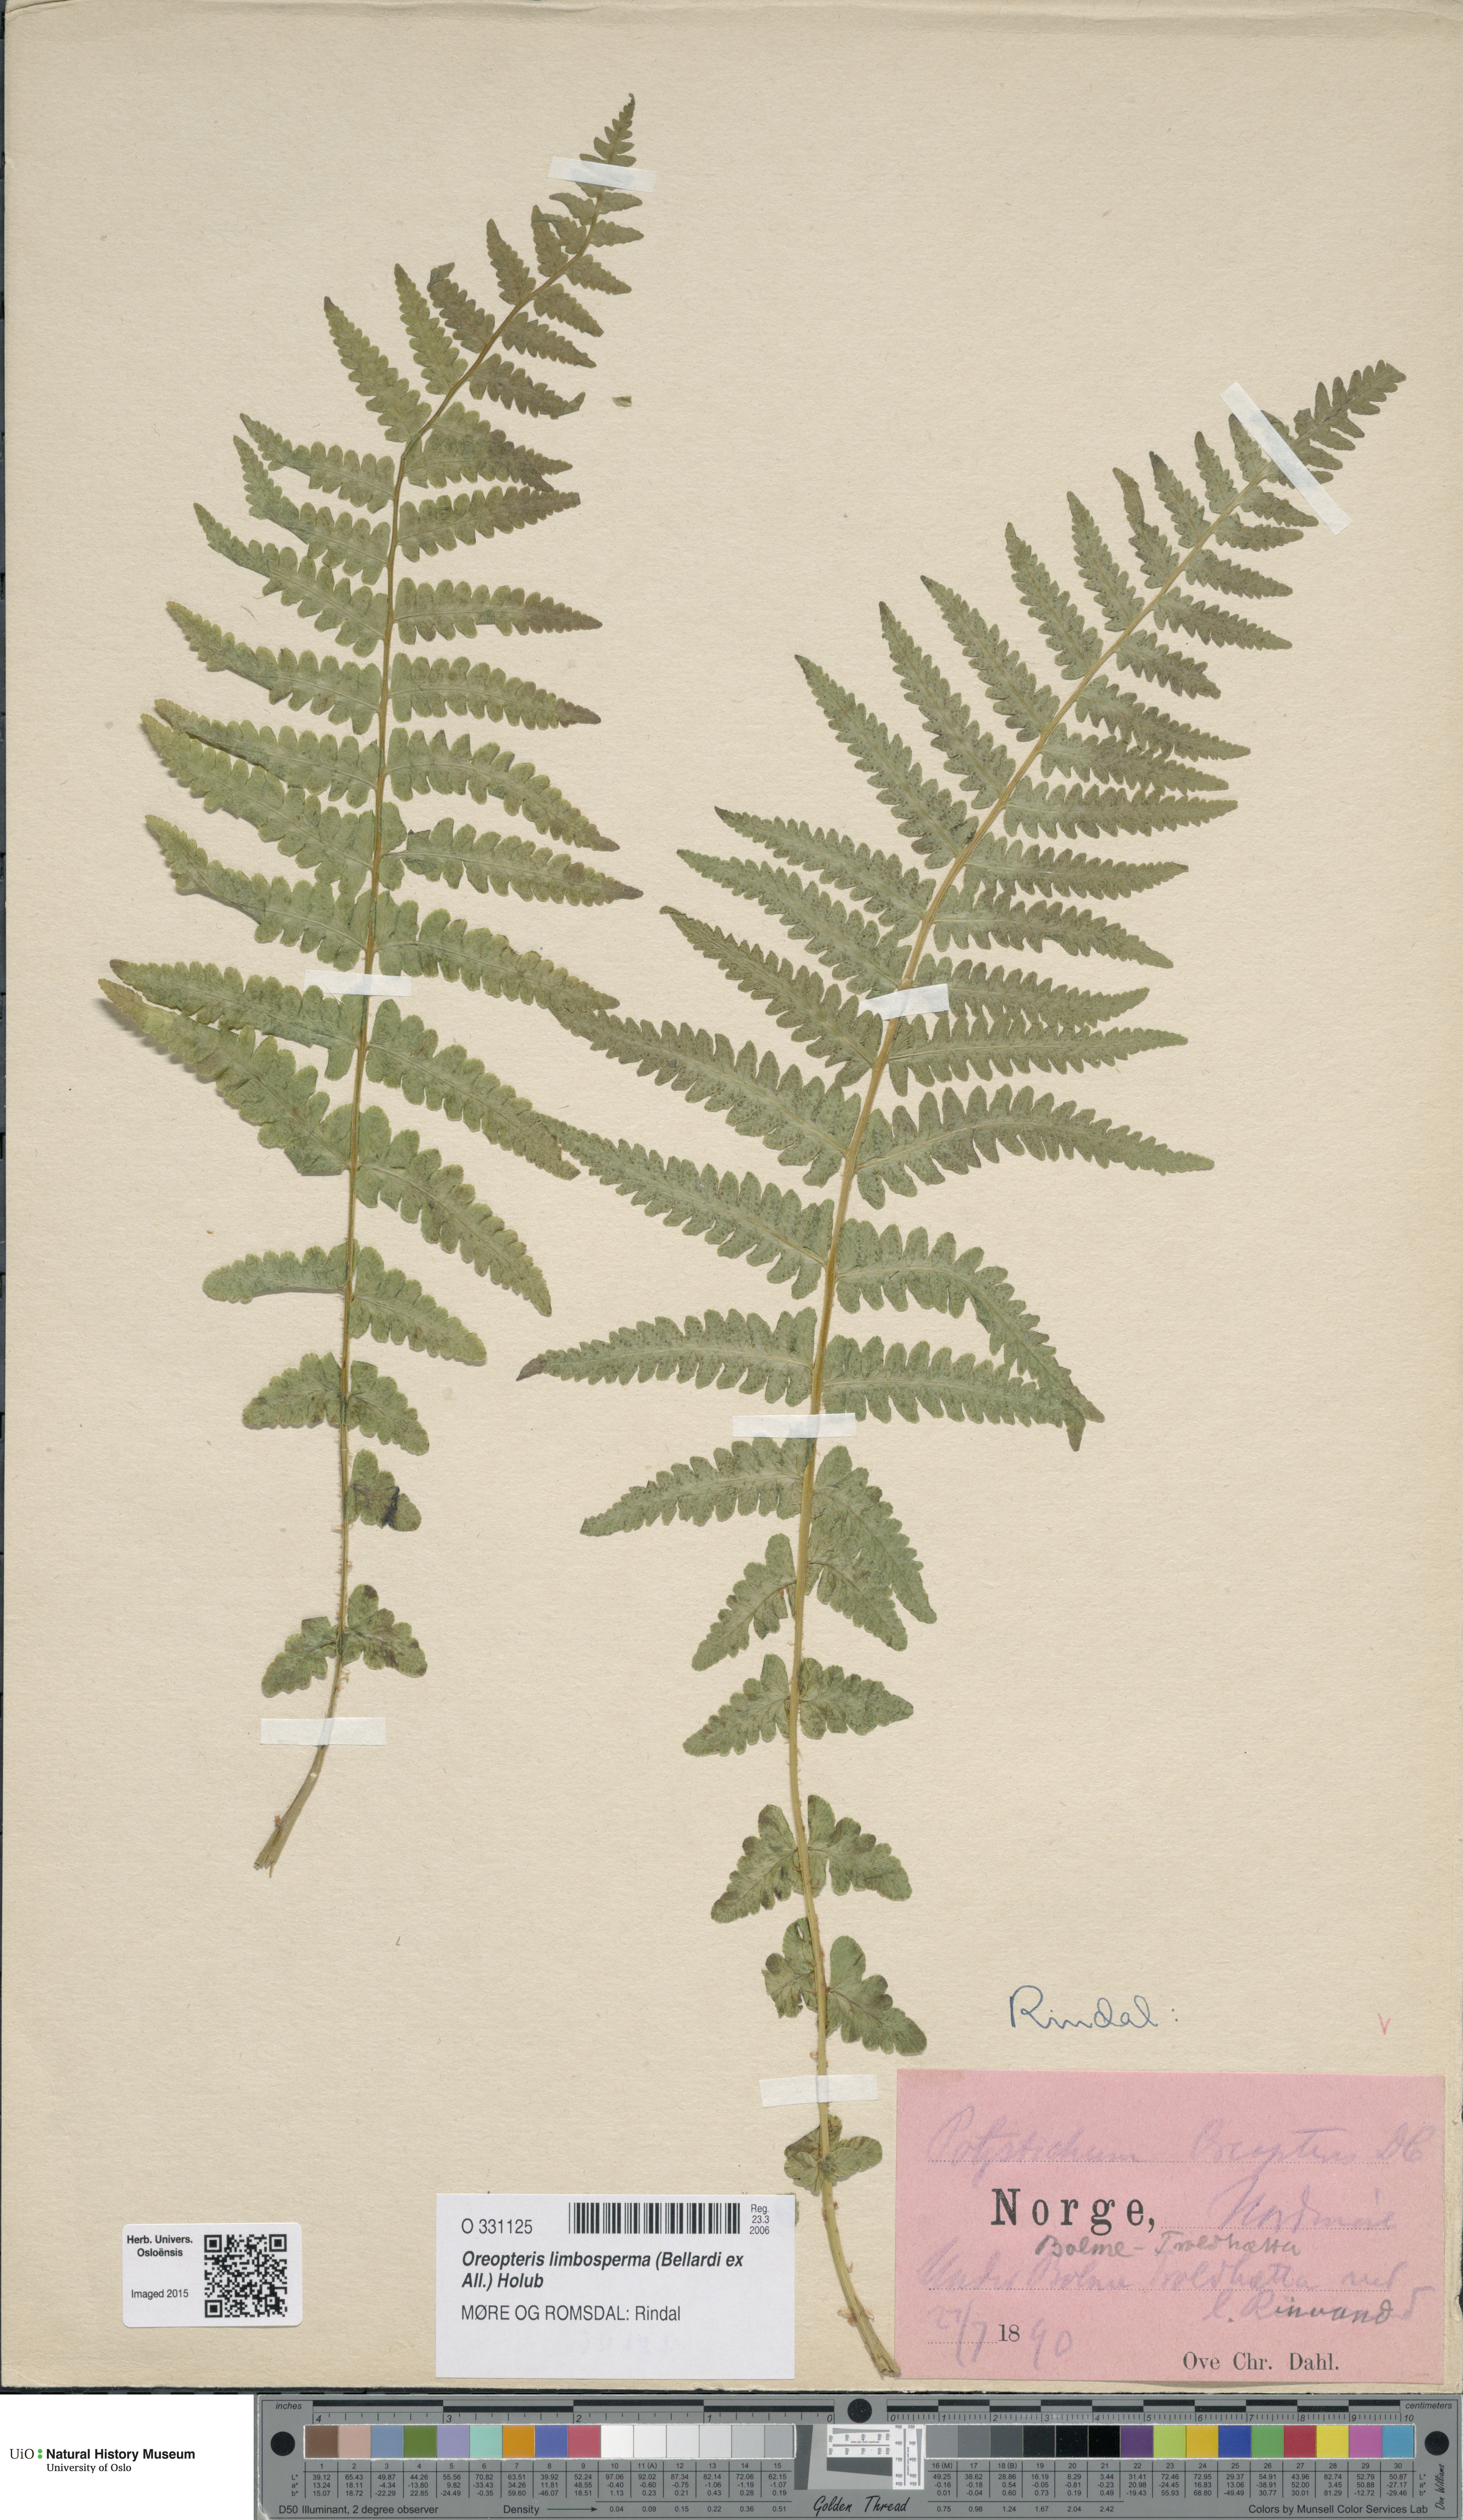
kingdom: Plantae
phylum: Tracheophyta
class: Polypodiopsida
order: Polypodiales
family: Thelypteridaceae
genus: Oreopteris
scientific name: Oreopteris limbosperma
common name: Lemon-scented fern
